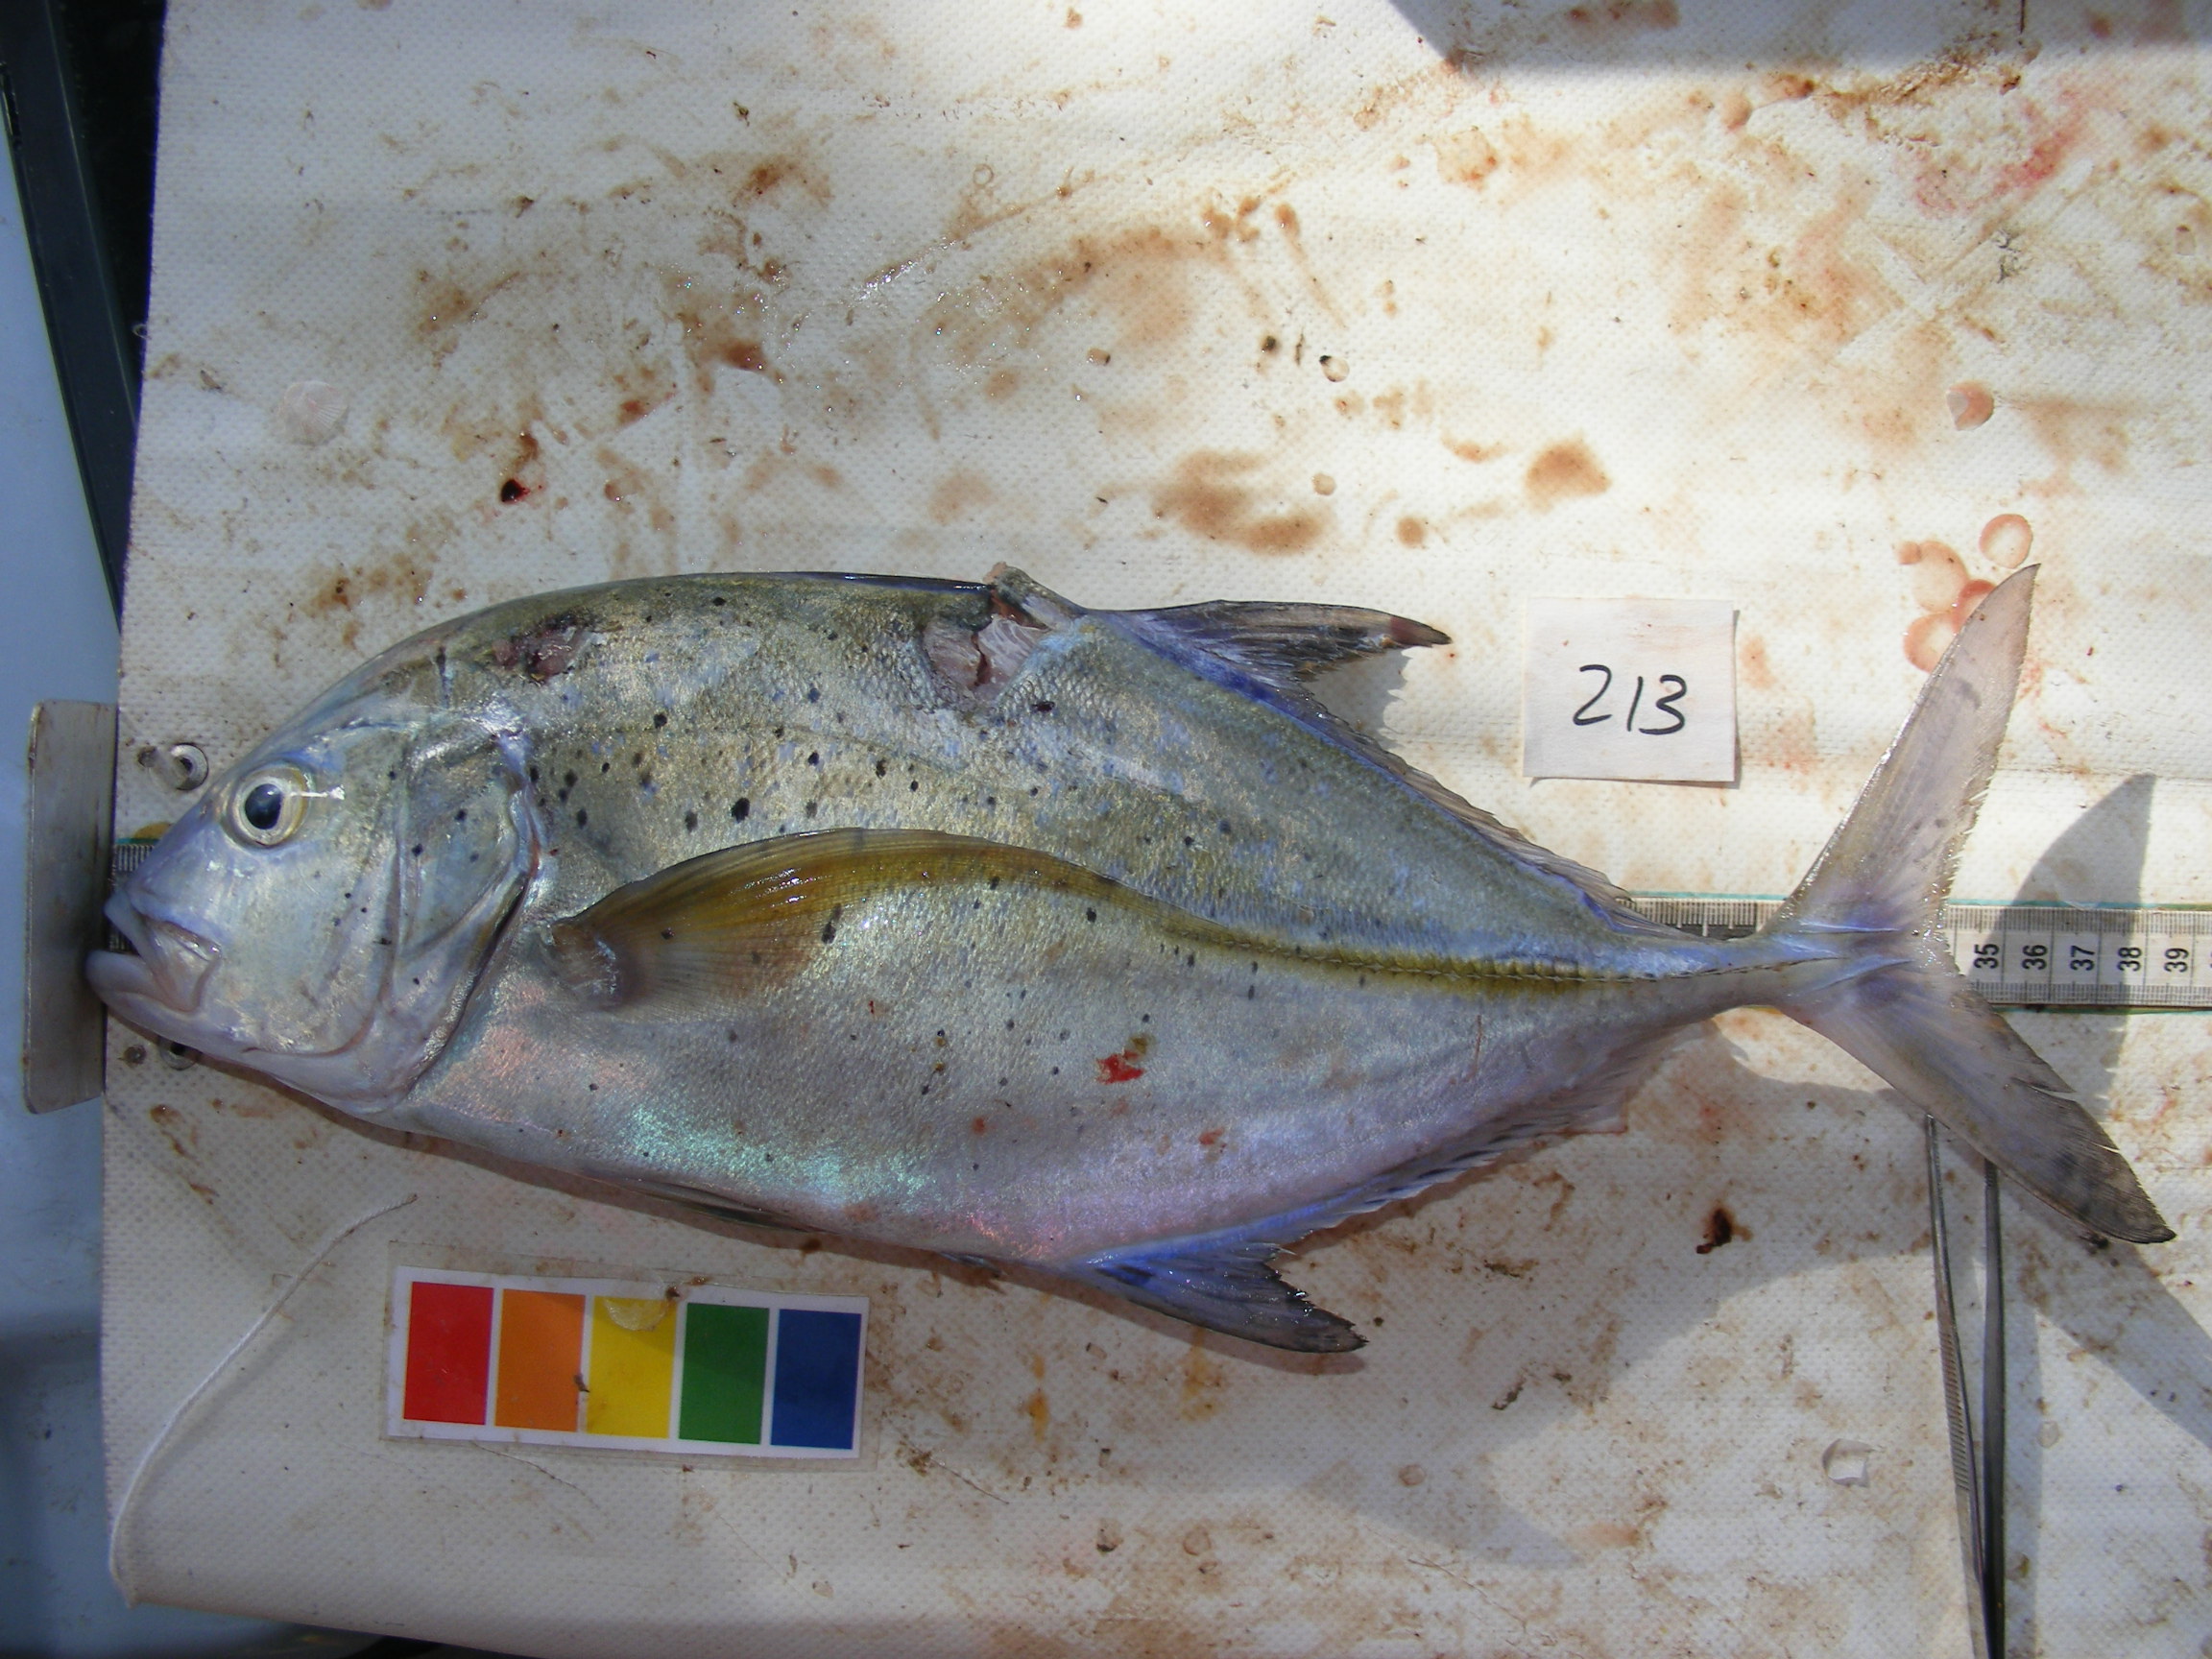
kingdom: Animalia
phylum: Chordata
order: Perciformes
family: Carangidae
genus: Caranx
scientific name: Caranx melampygus
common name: Bluefin trevally
